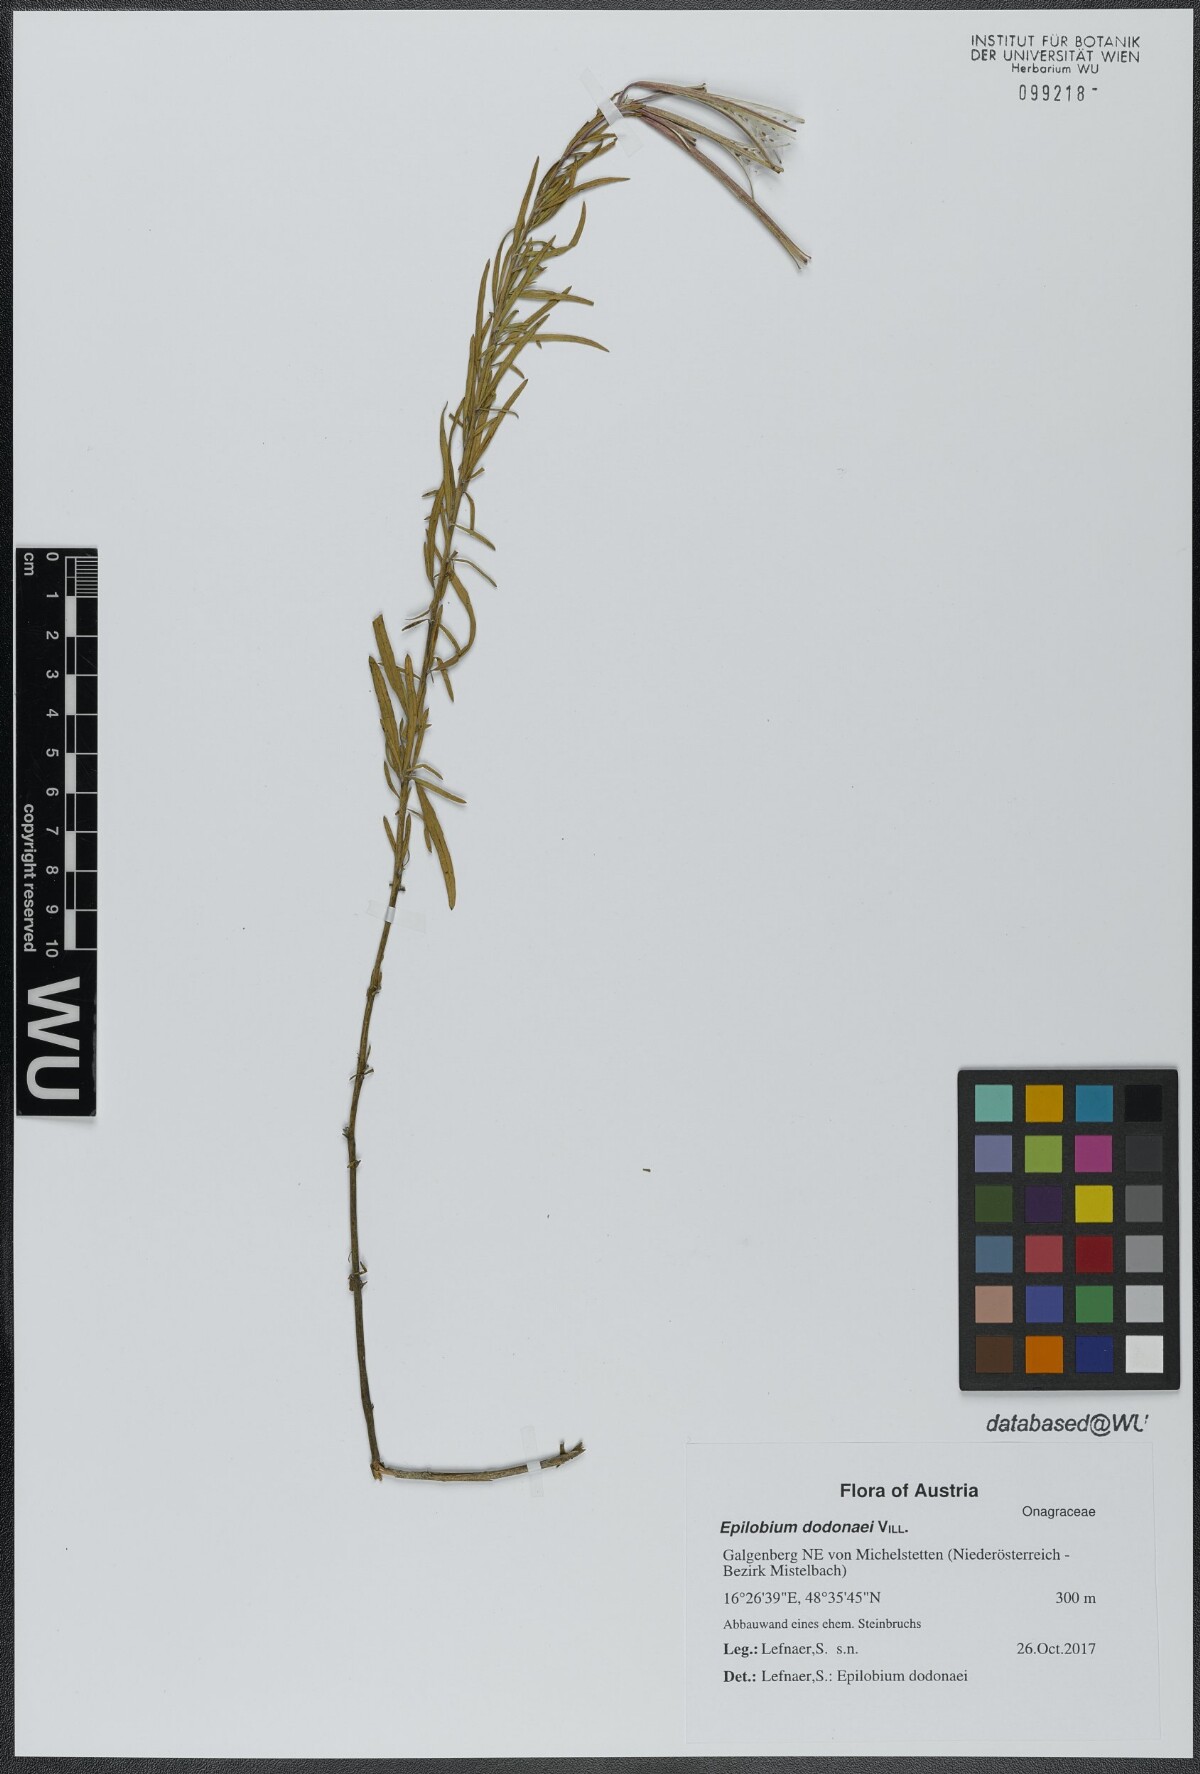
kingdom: Plantae
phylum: Tracheophyta
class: Magnoliopsida
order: Myrtales
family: Onagraceae
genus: Chamaenerion
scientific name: Chamaenerion dodonaei
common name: Rosemary-leaved willowherb
